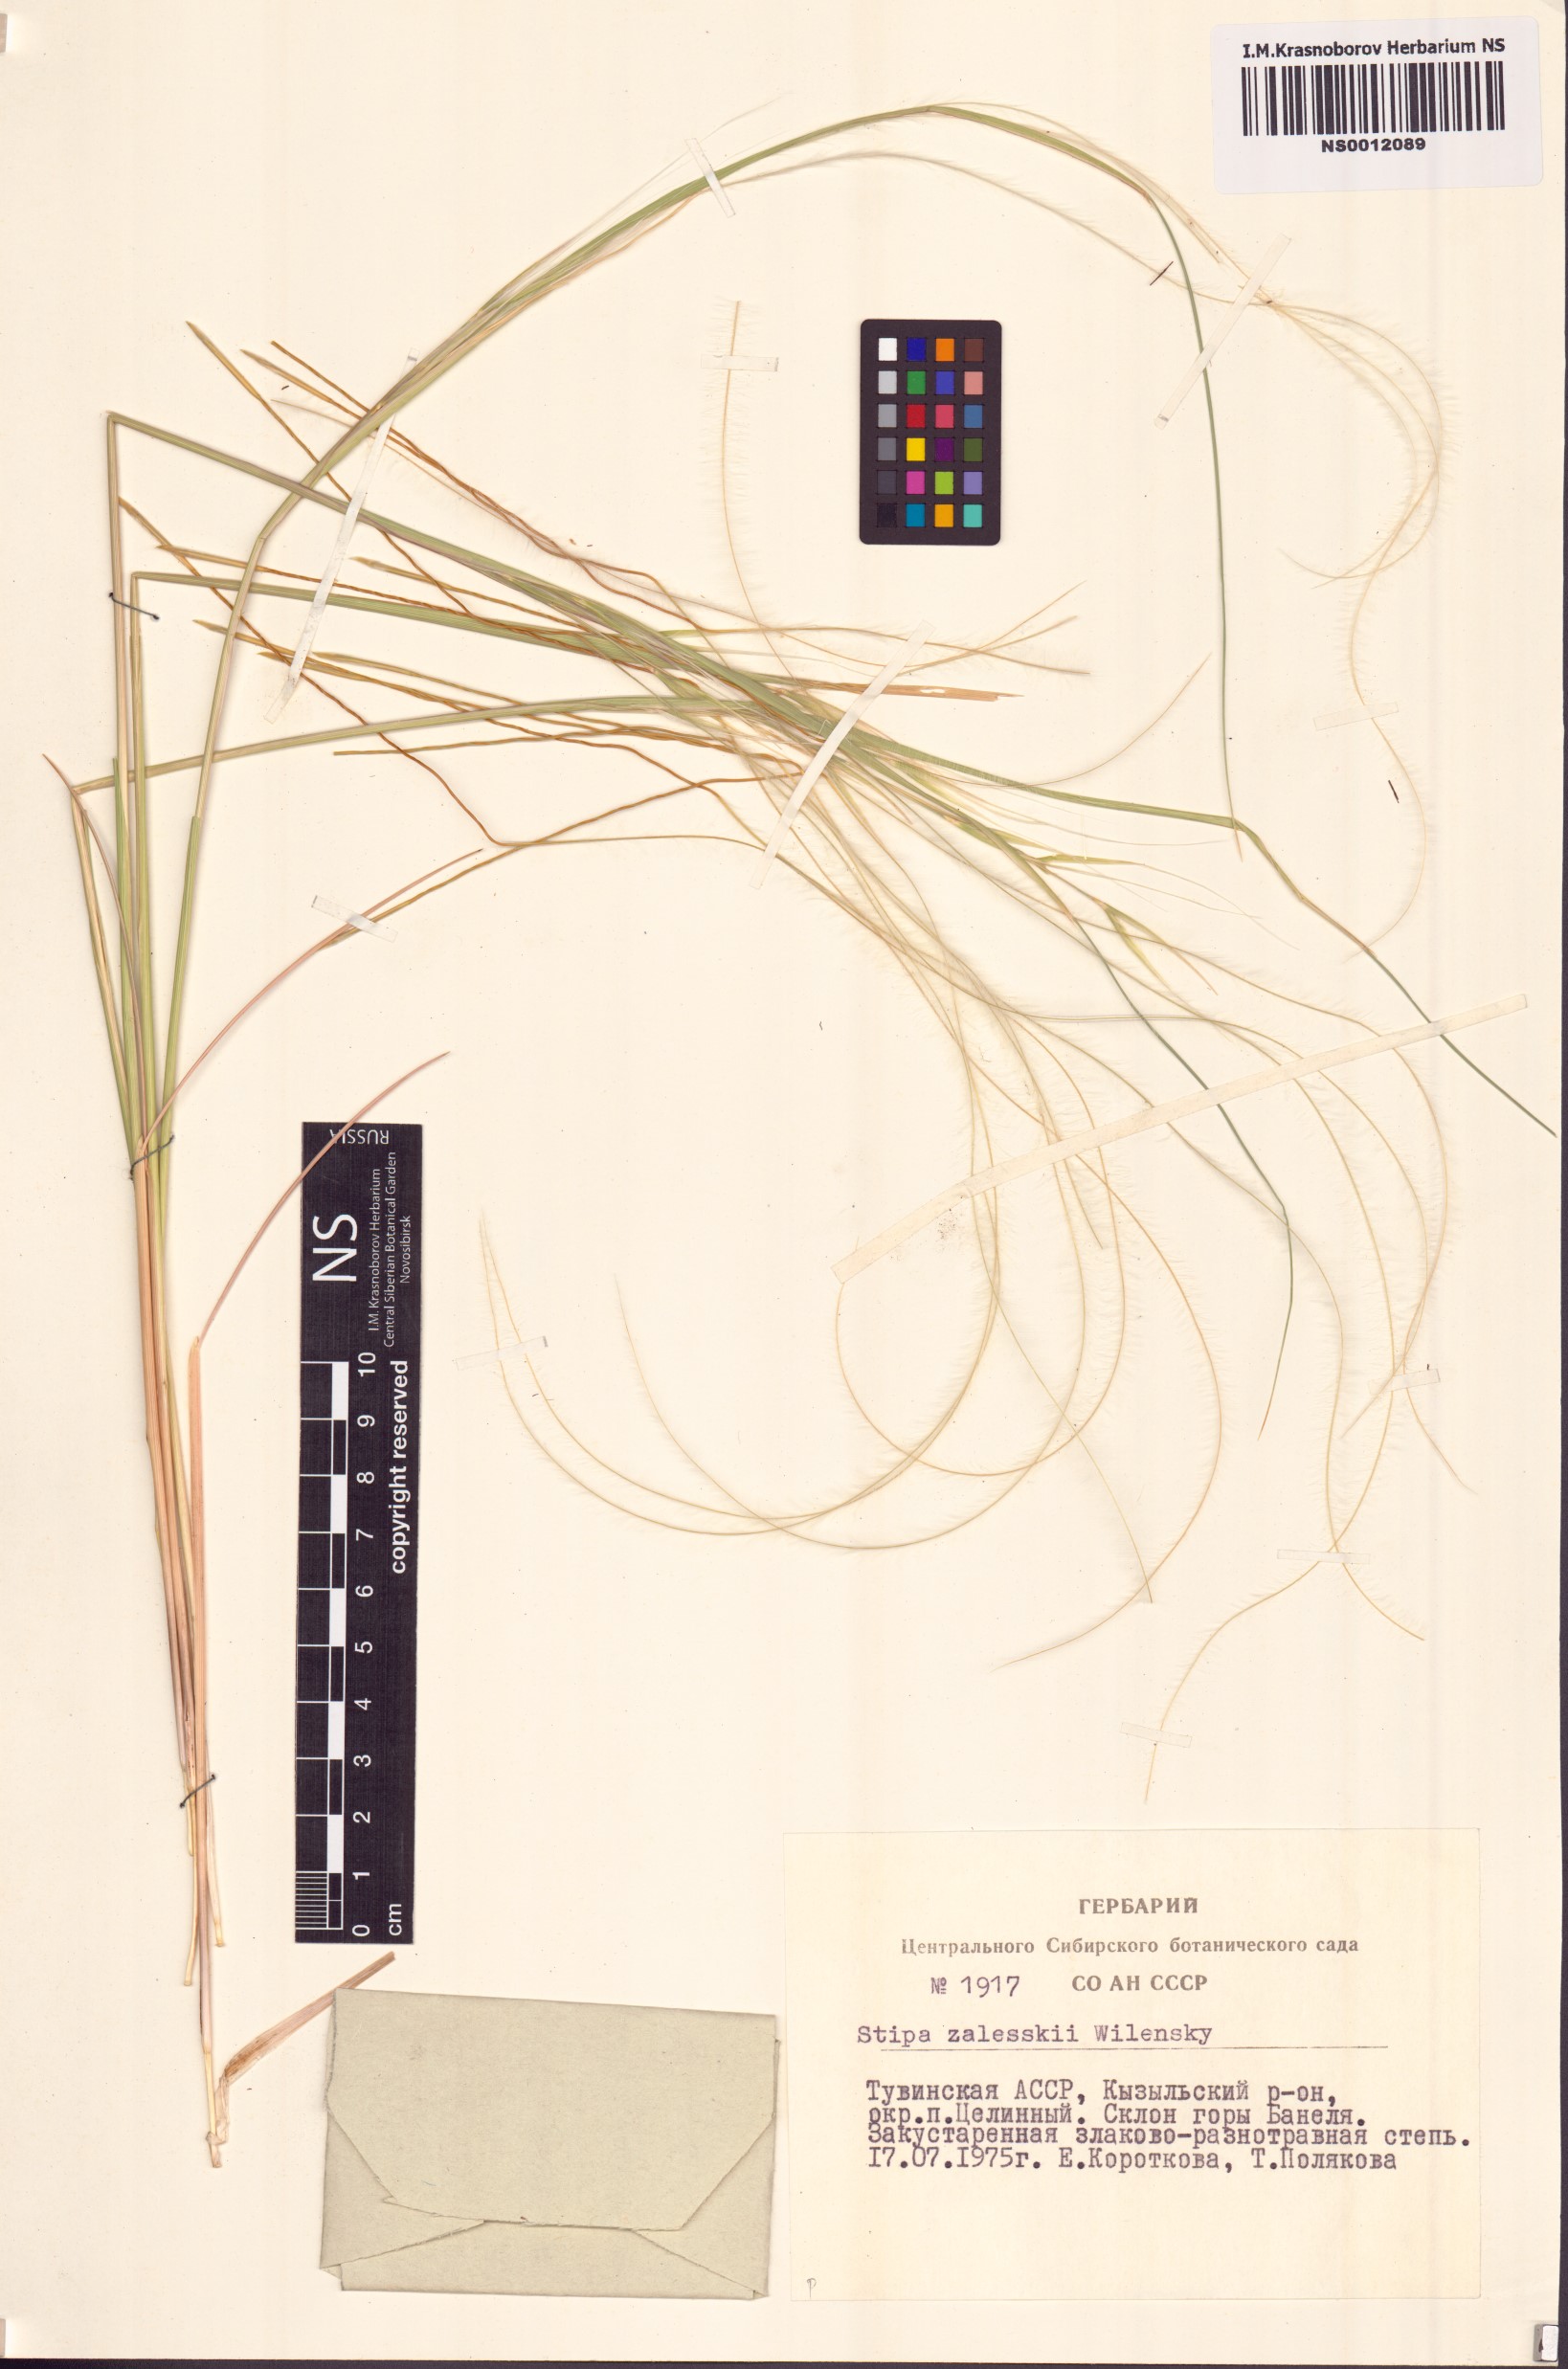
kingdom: Plantae
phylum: Tracheophyta
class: Liliopsida
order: Poales
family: Poaceae
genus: Stipa
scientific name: Stipa zalesskii
